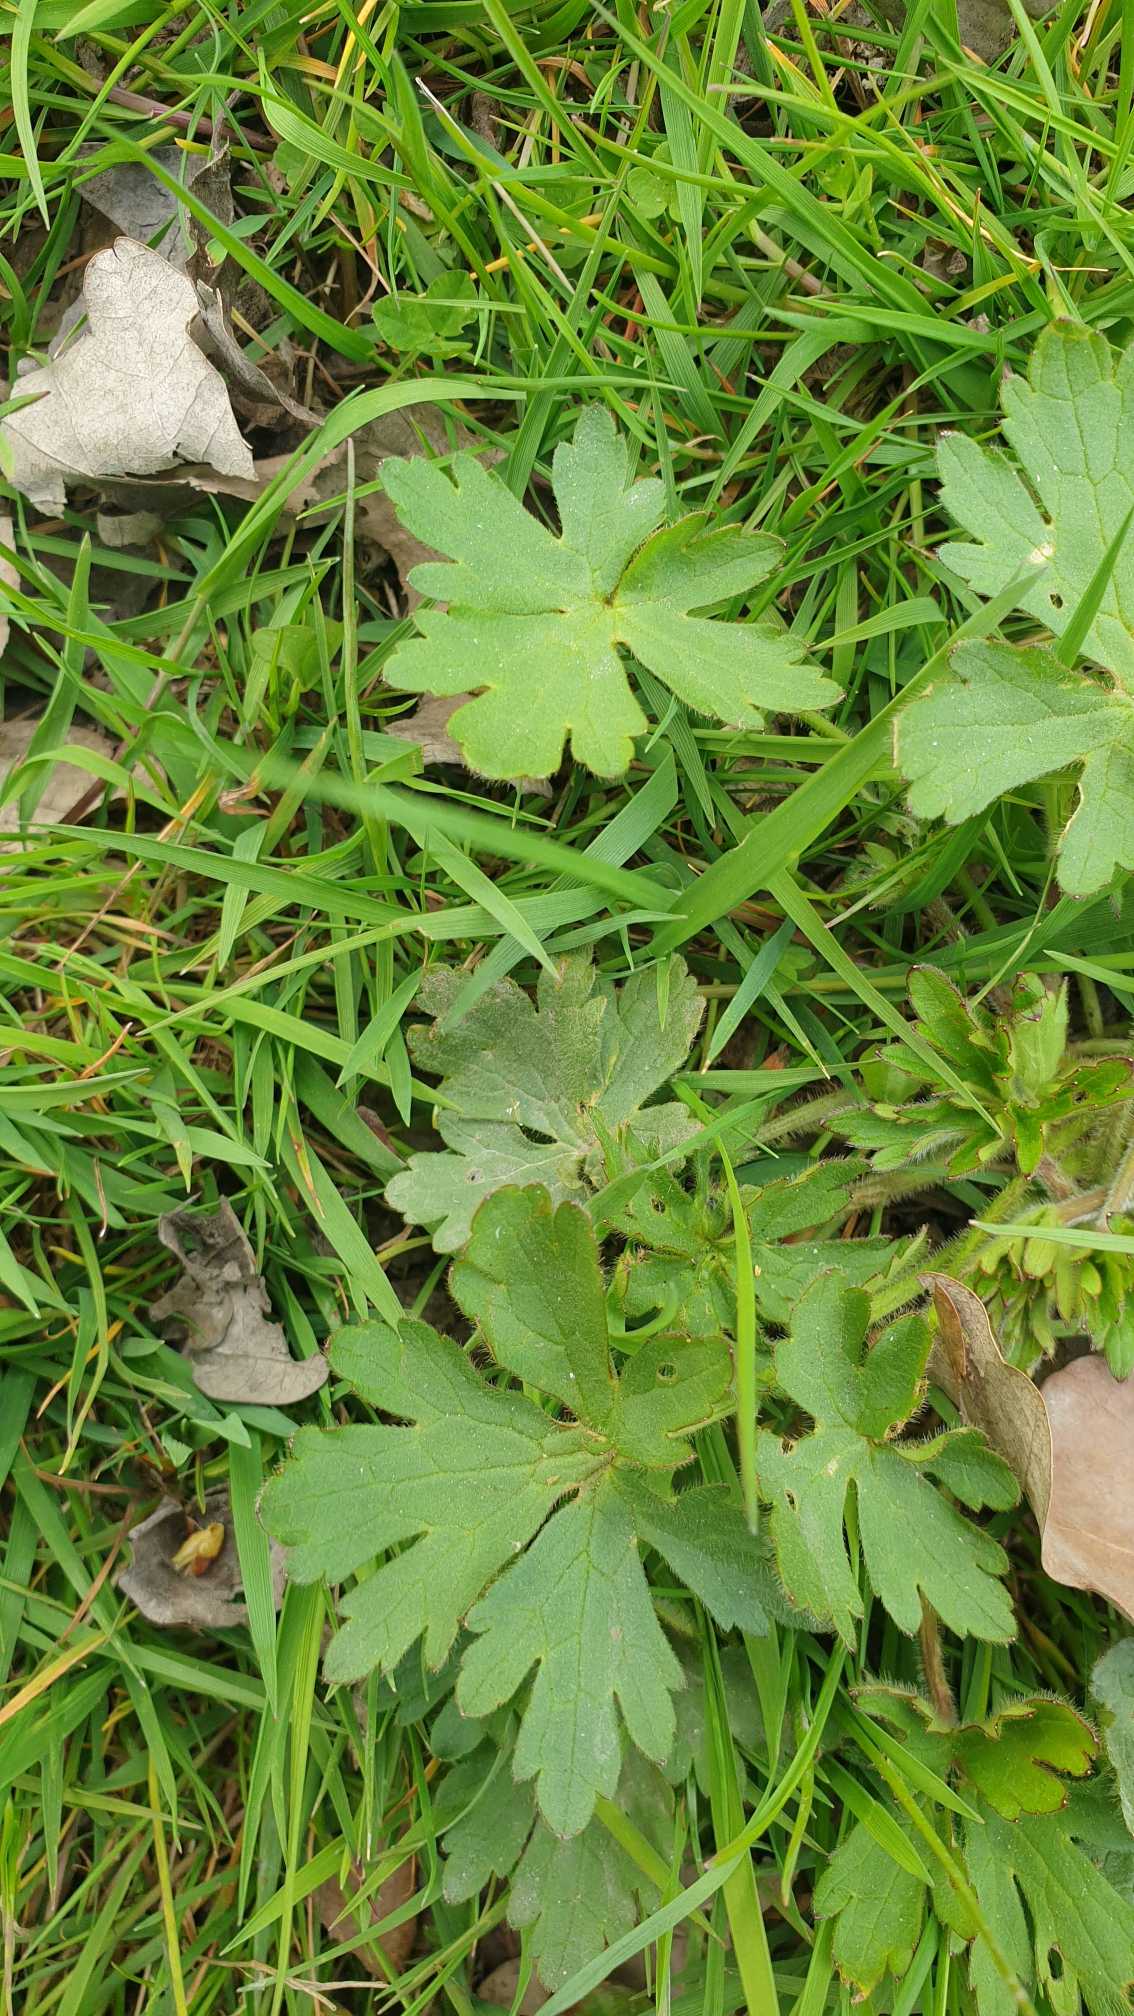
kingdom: Plantae
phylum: Tracheophyta
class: Magnoliopsida
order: Ranunculales
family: Ranunculaceae
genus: Ranunculus
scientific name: Ranunculus acris
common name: Bidende ranunkel
